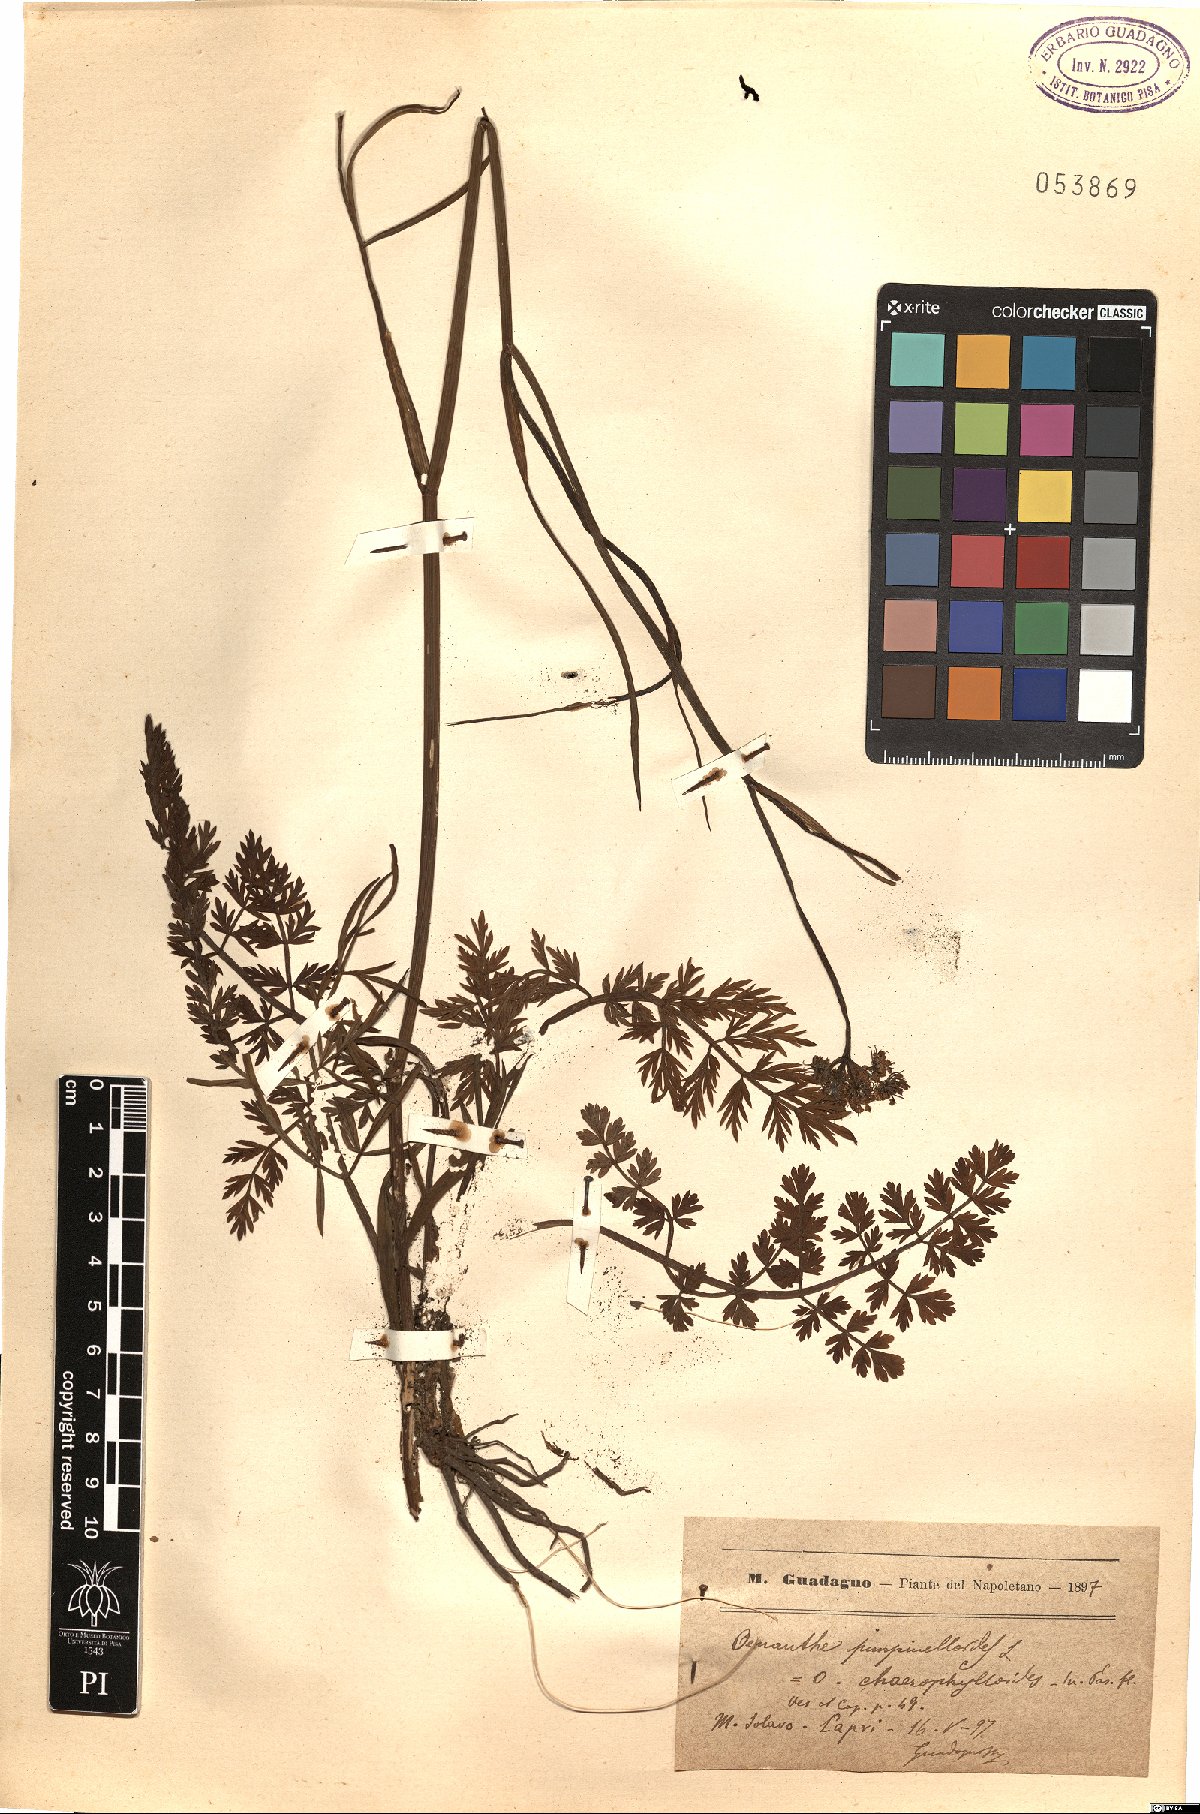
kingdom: Plantae
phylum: Tracheophyta
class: Magnoliopsida
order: Apiales
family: Apiaceae
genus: Oenanthe
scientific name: Oenanthe pimpinelloides
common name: Corky-fruited water-dropwort
